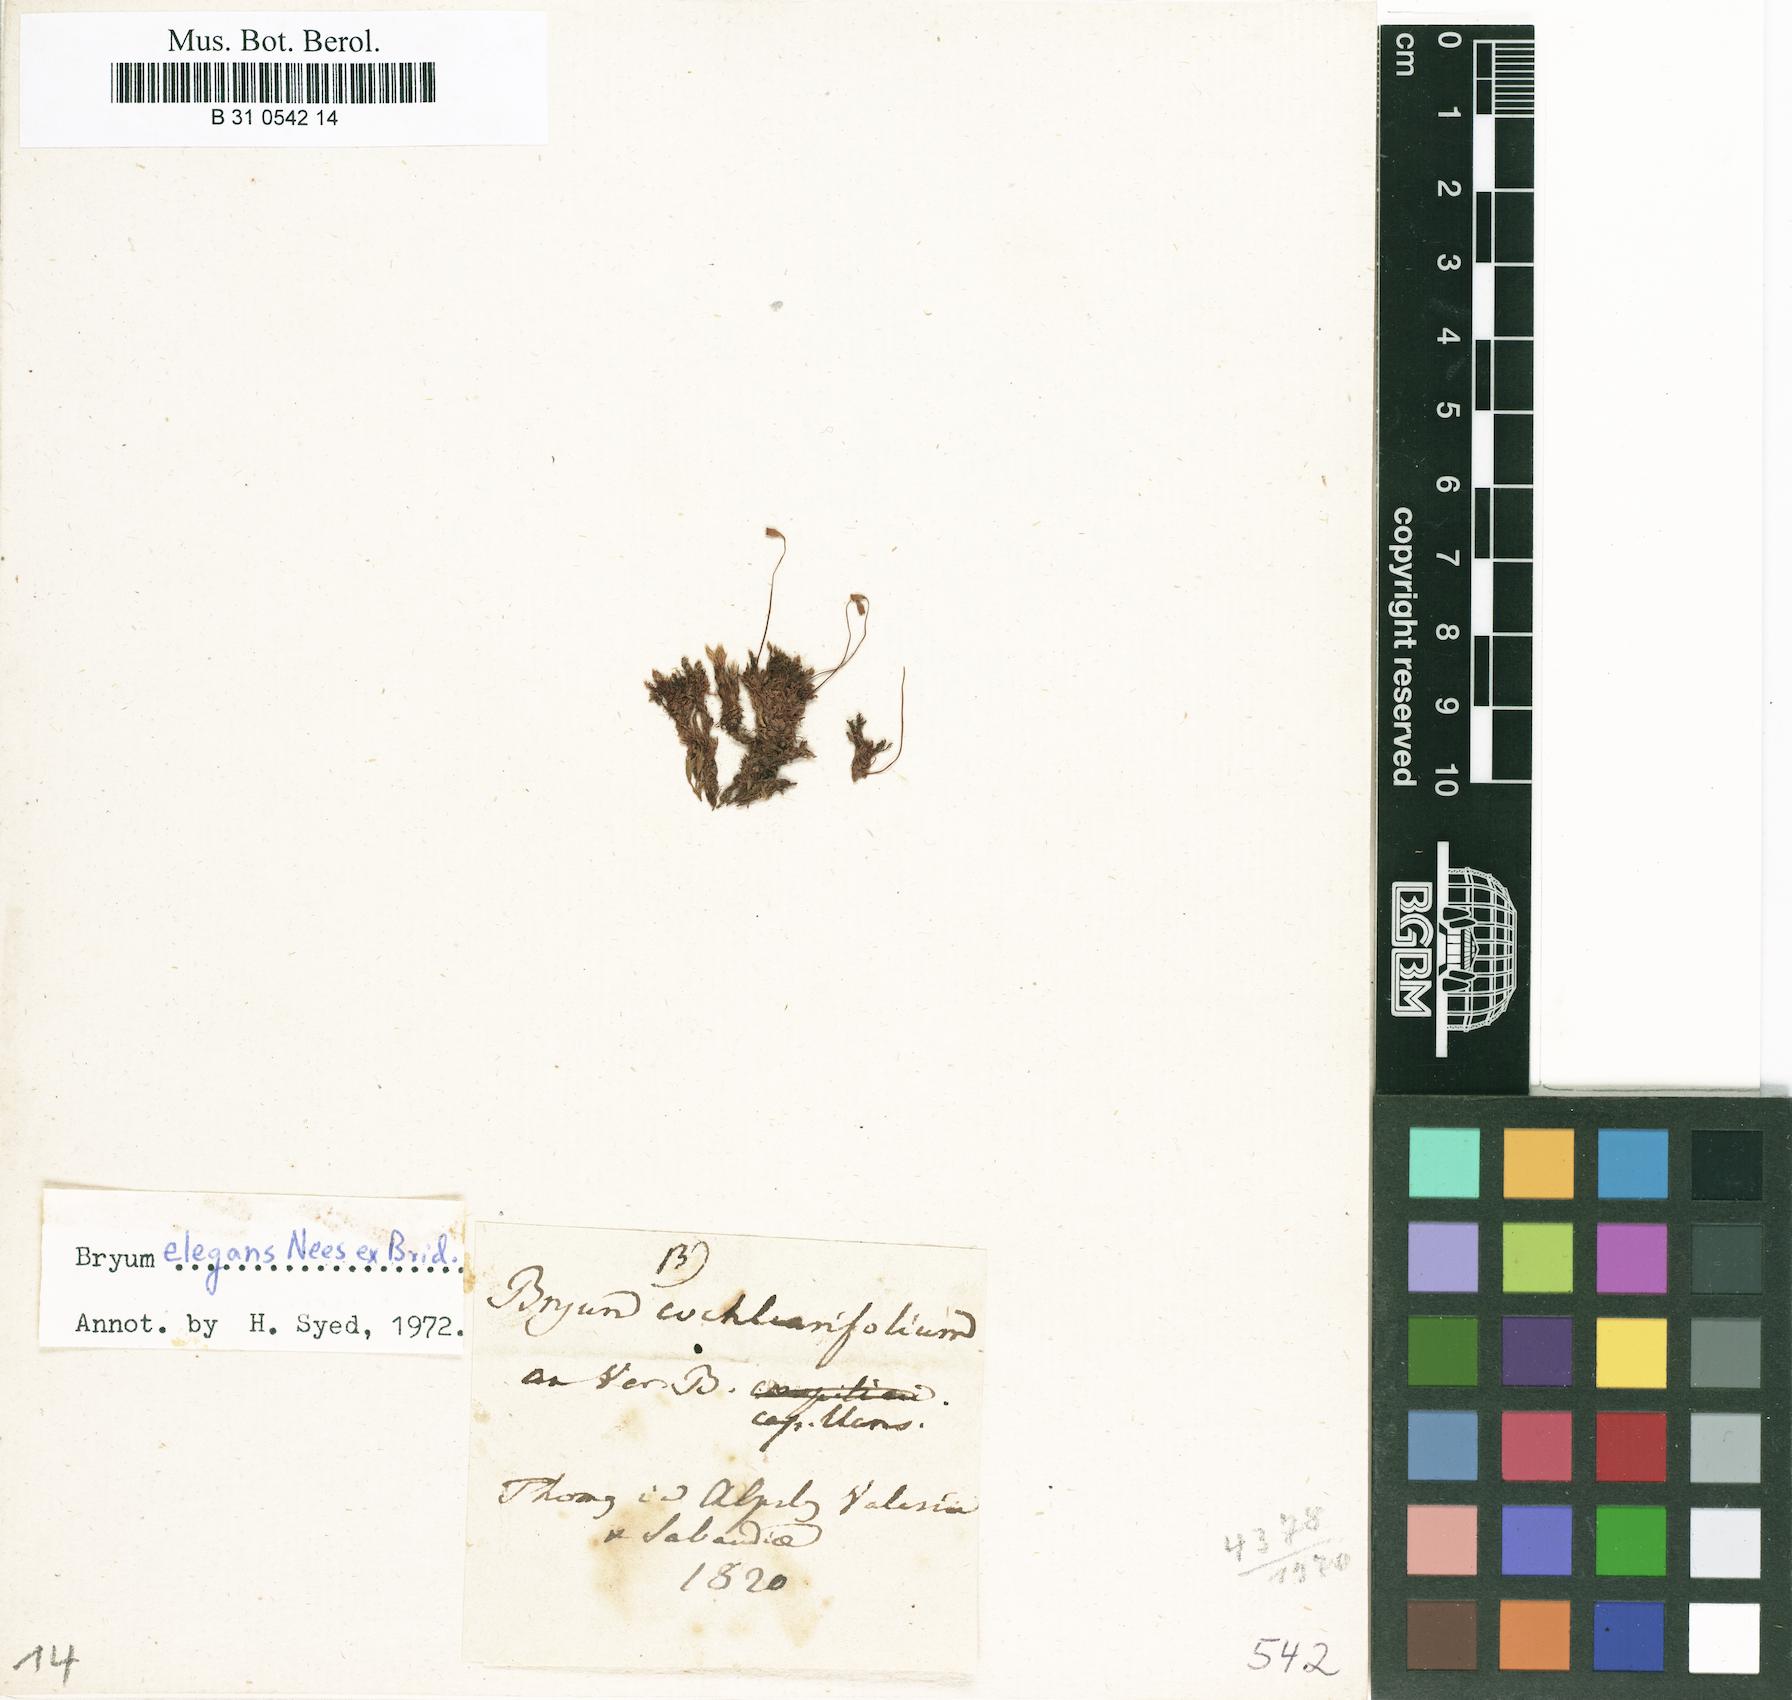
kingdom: Plantae
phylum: Bryophyta
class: Bryopsida
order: Bryales
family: Bryaceae
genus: Rosulabryum
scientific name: Rosulabryum capillare
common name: Capillary thread-moss
